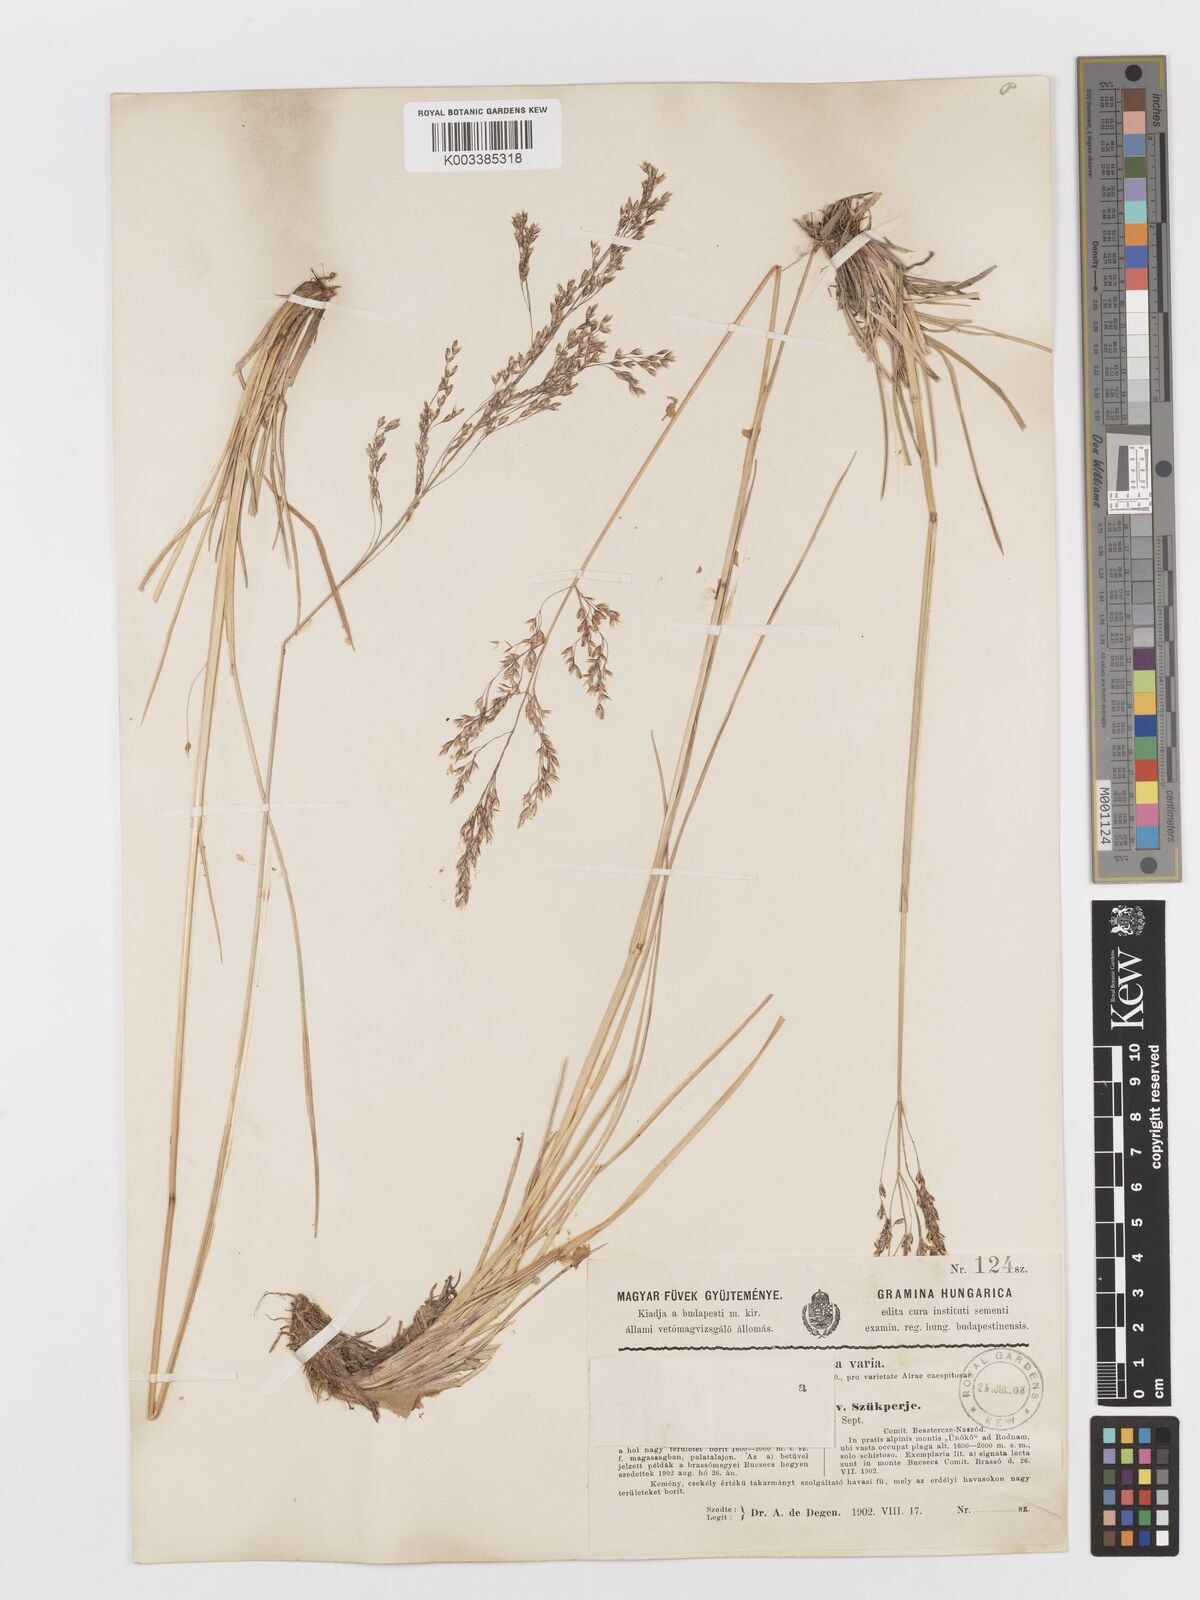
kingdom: Plantae
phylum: Tracheophyta
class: Liliopsida
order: Poales
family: Poaceae
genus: Deschampsia
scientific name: Deschampsia cespitosa
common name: Tufted hair-grass
